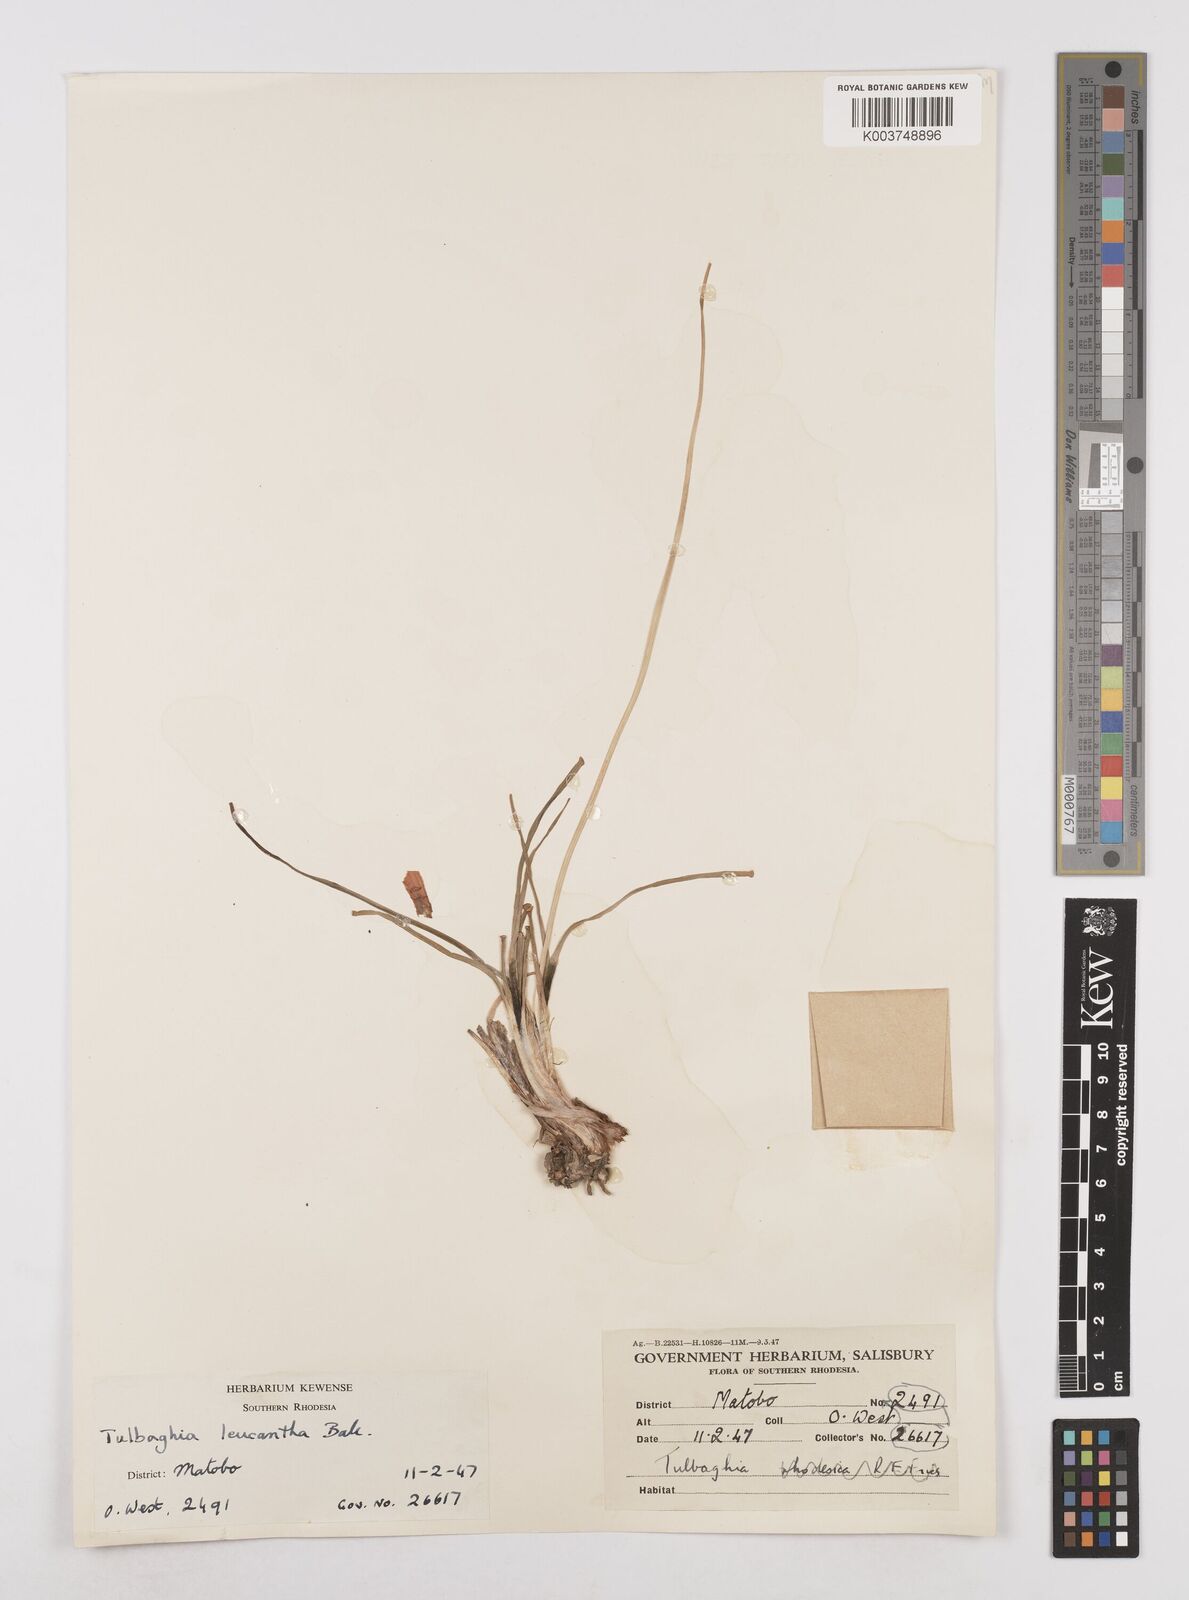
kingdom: Plantae
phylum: Tracheophyta
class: Liliopsida
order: Asparagales
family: Amaryllidaceae
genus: Tulbaghia
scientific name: Tulbaghia
